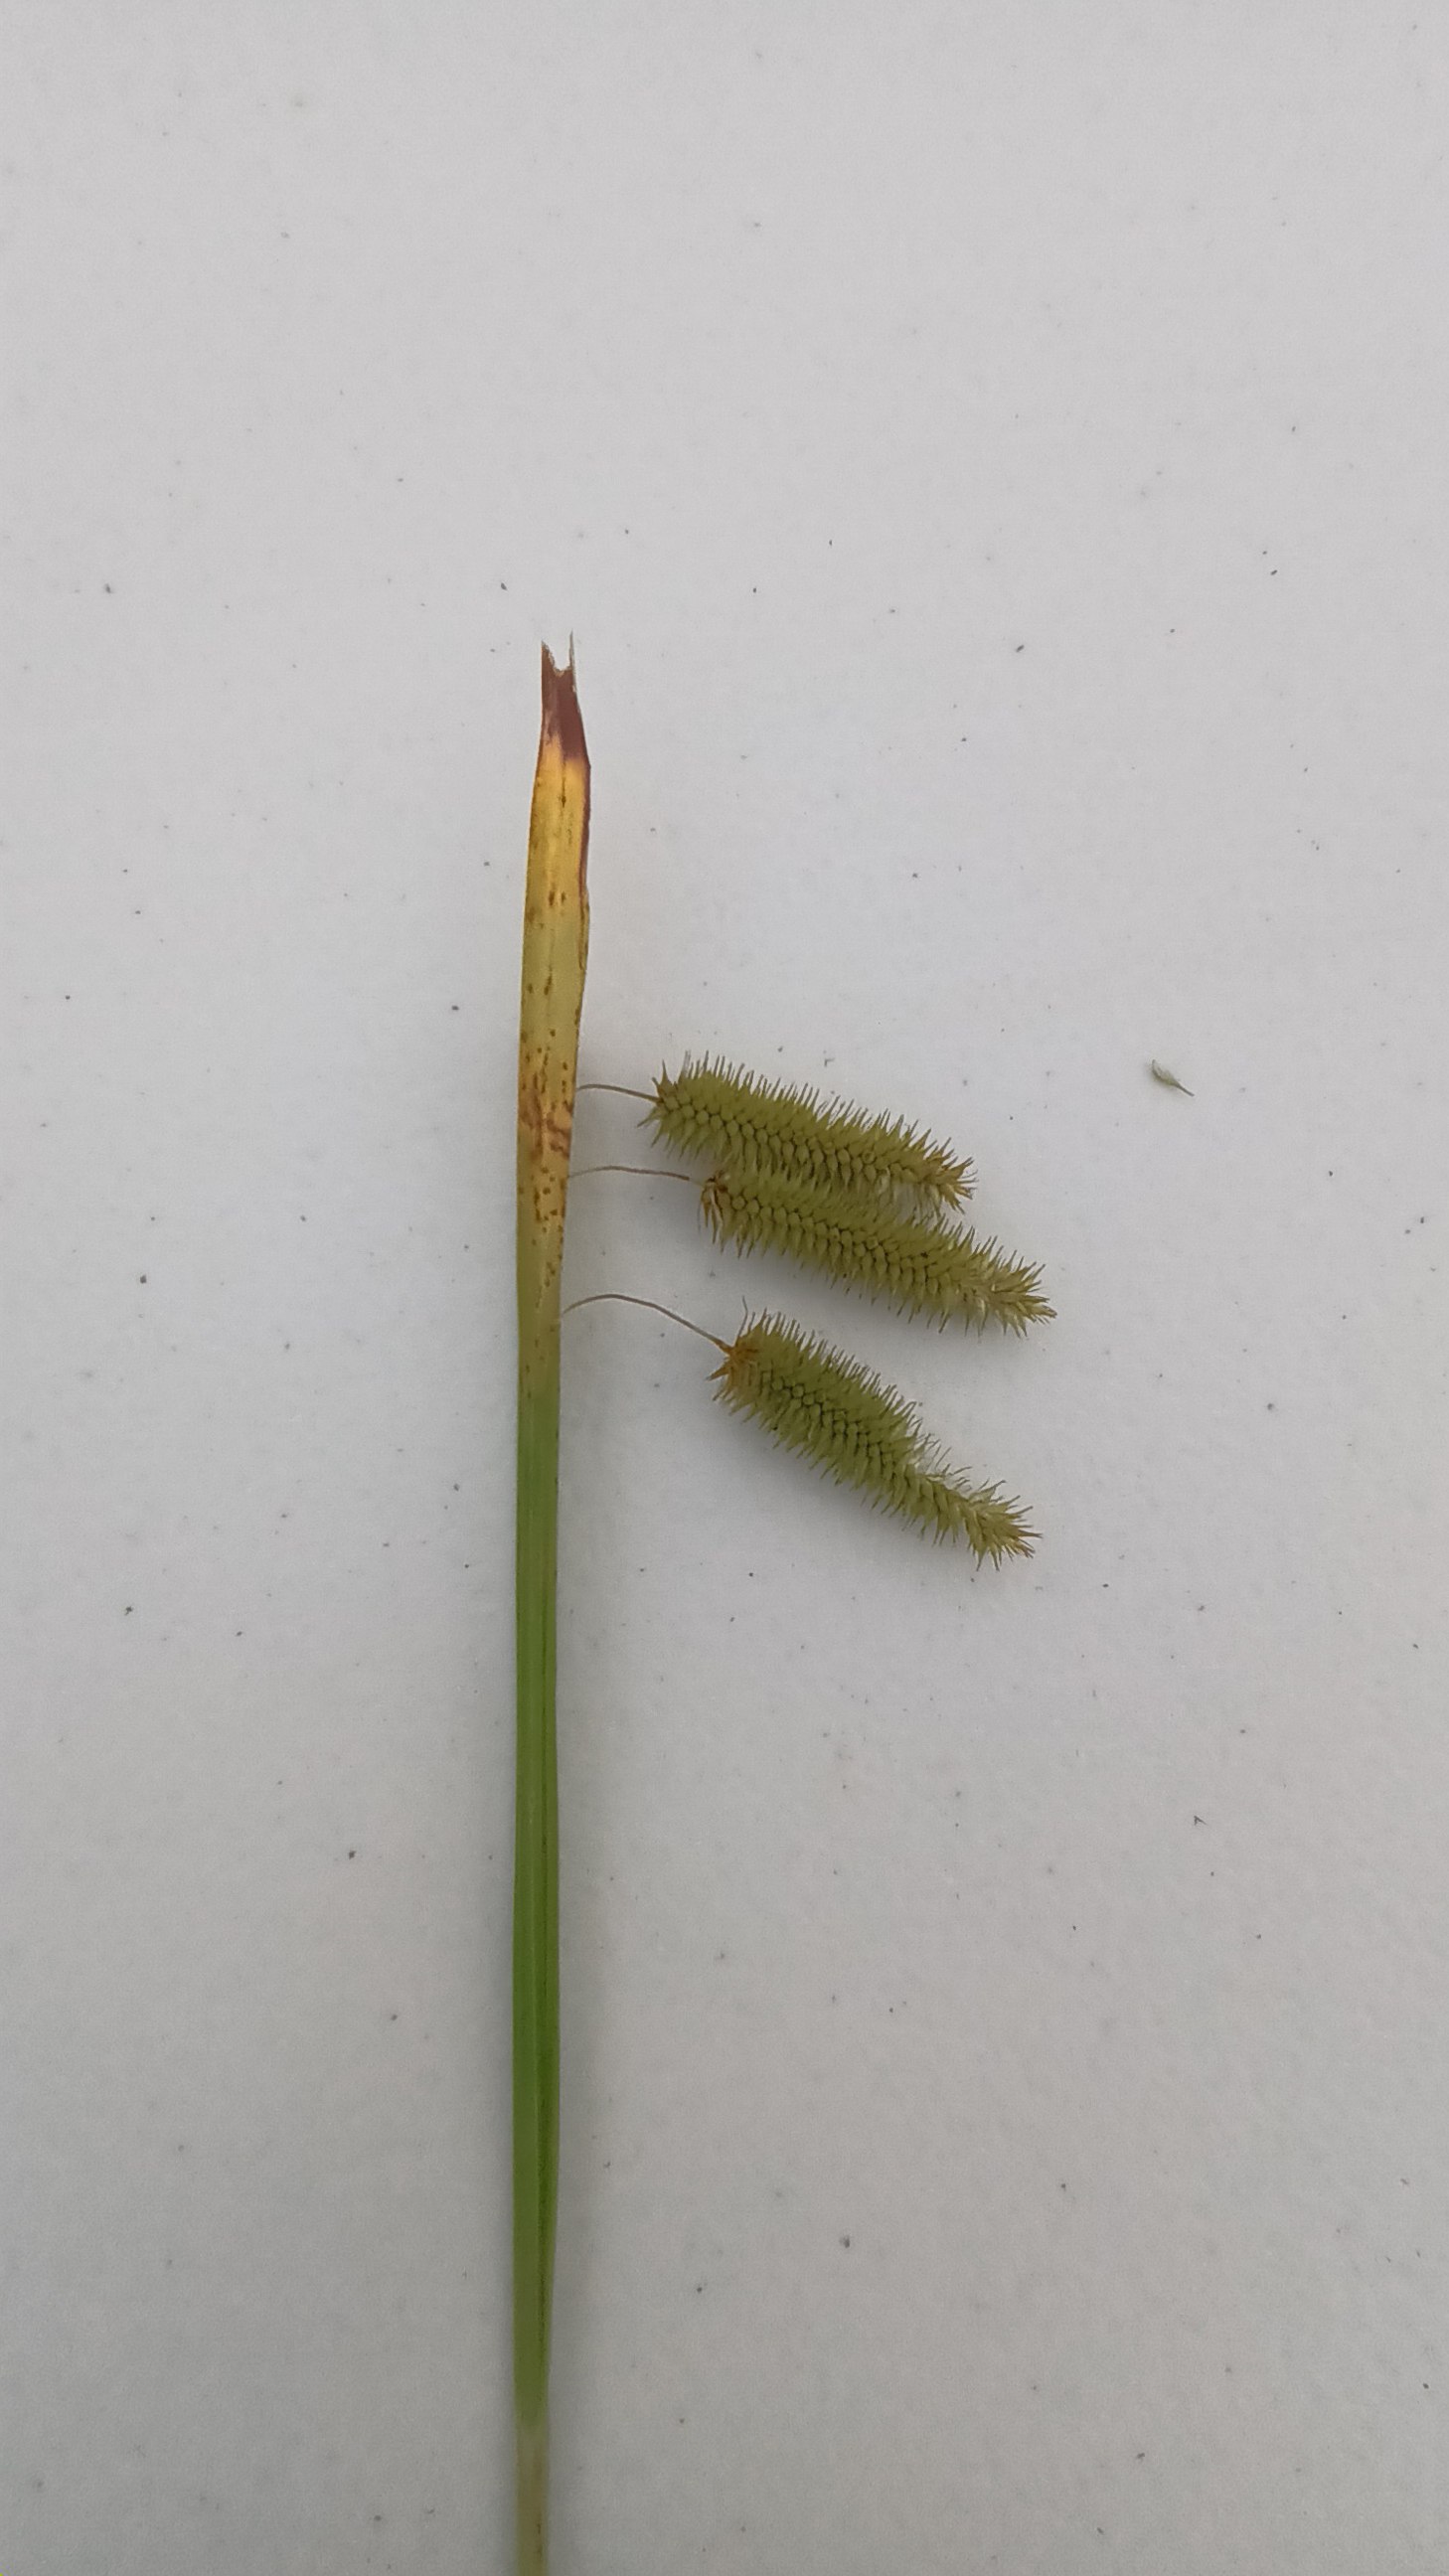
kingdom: Plantae
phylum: Tracheophyta
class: Liliopsida
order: Poales
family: Cyperaceae
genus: Carex
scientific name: Carex pseudocyperus
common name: Knippe-star
